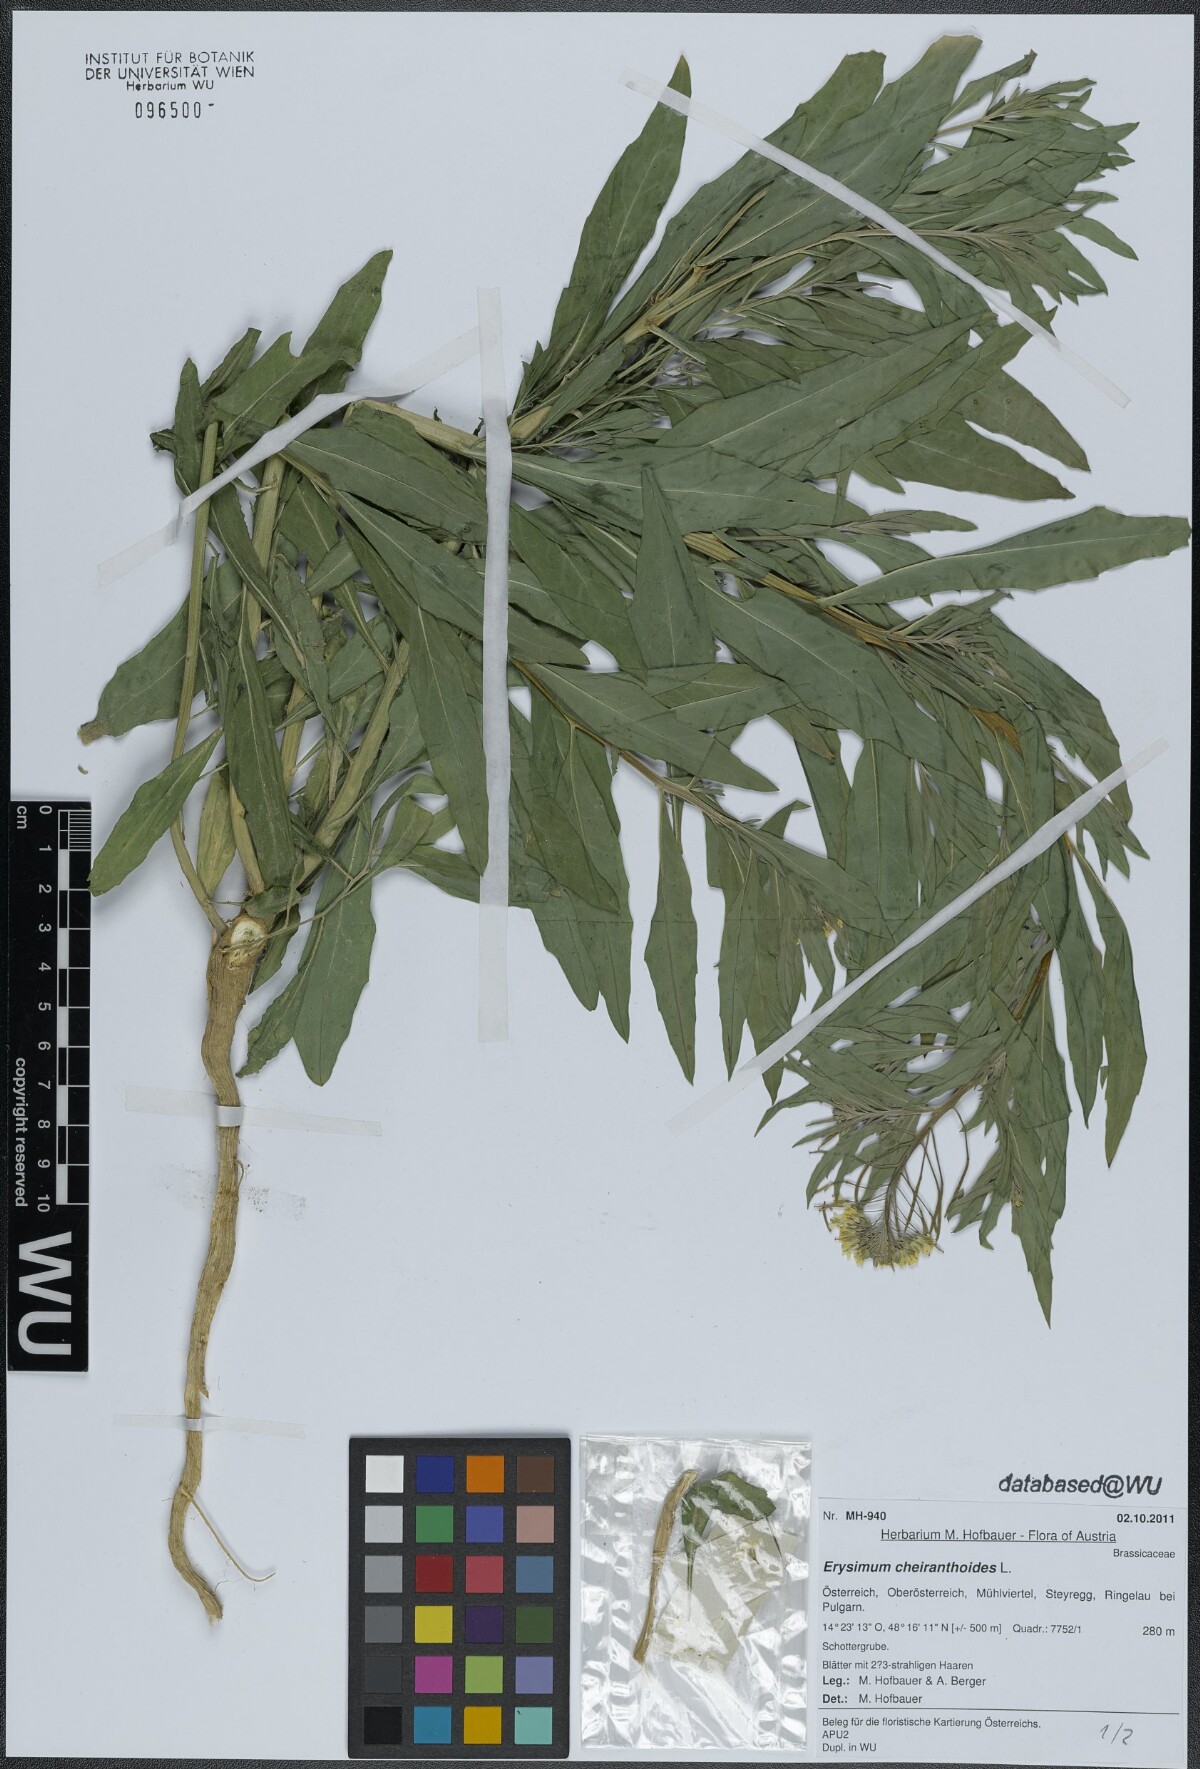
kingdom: Plantae
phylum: Tracheophyta
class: Magnoliopsida
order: Brassicales
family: Brassicaceae
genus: Erysimum
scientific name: Erysimum cheiranthoides
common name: Treacle mustard
